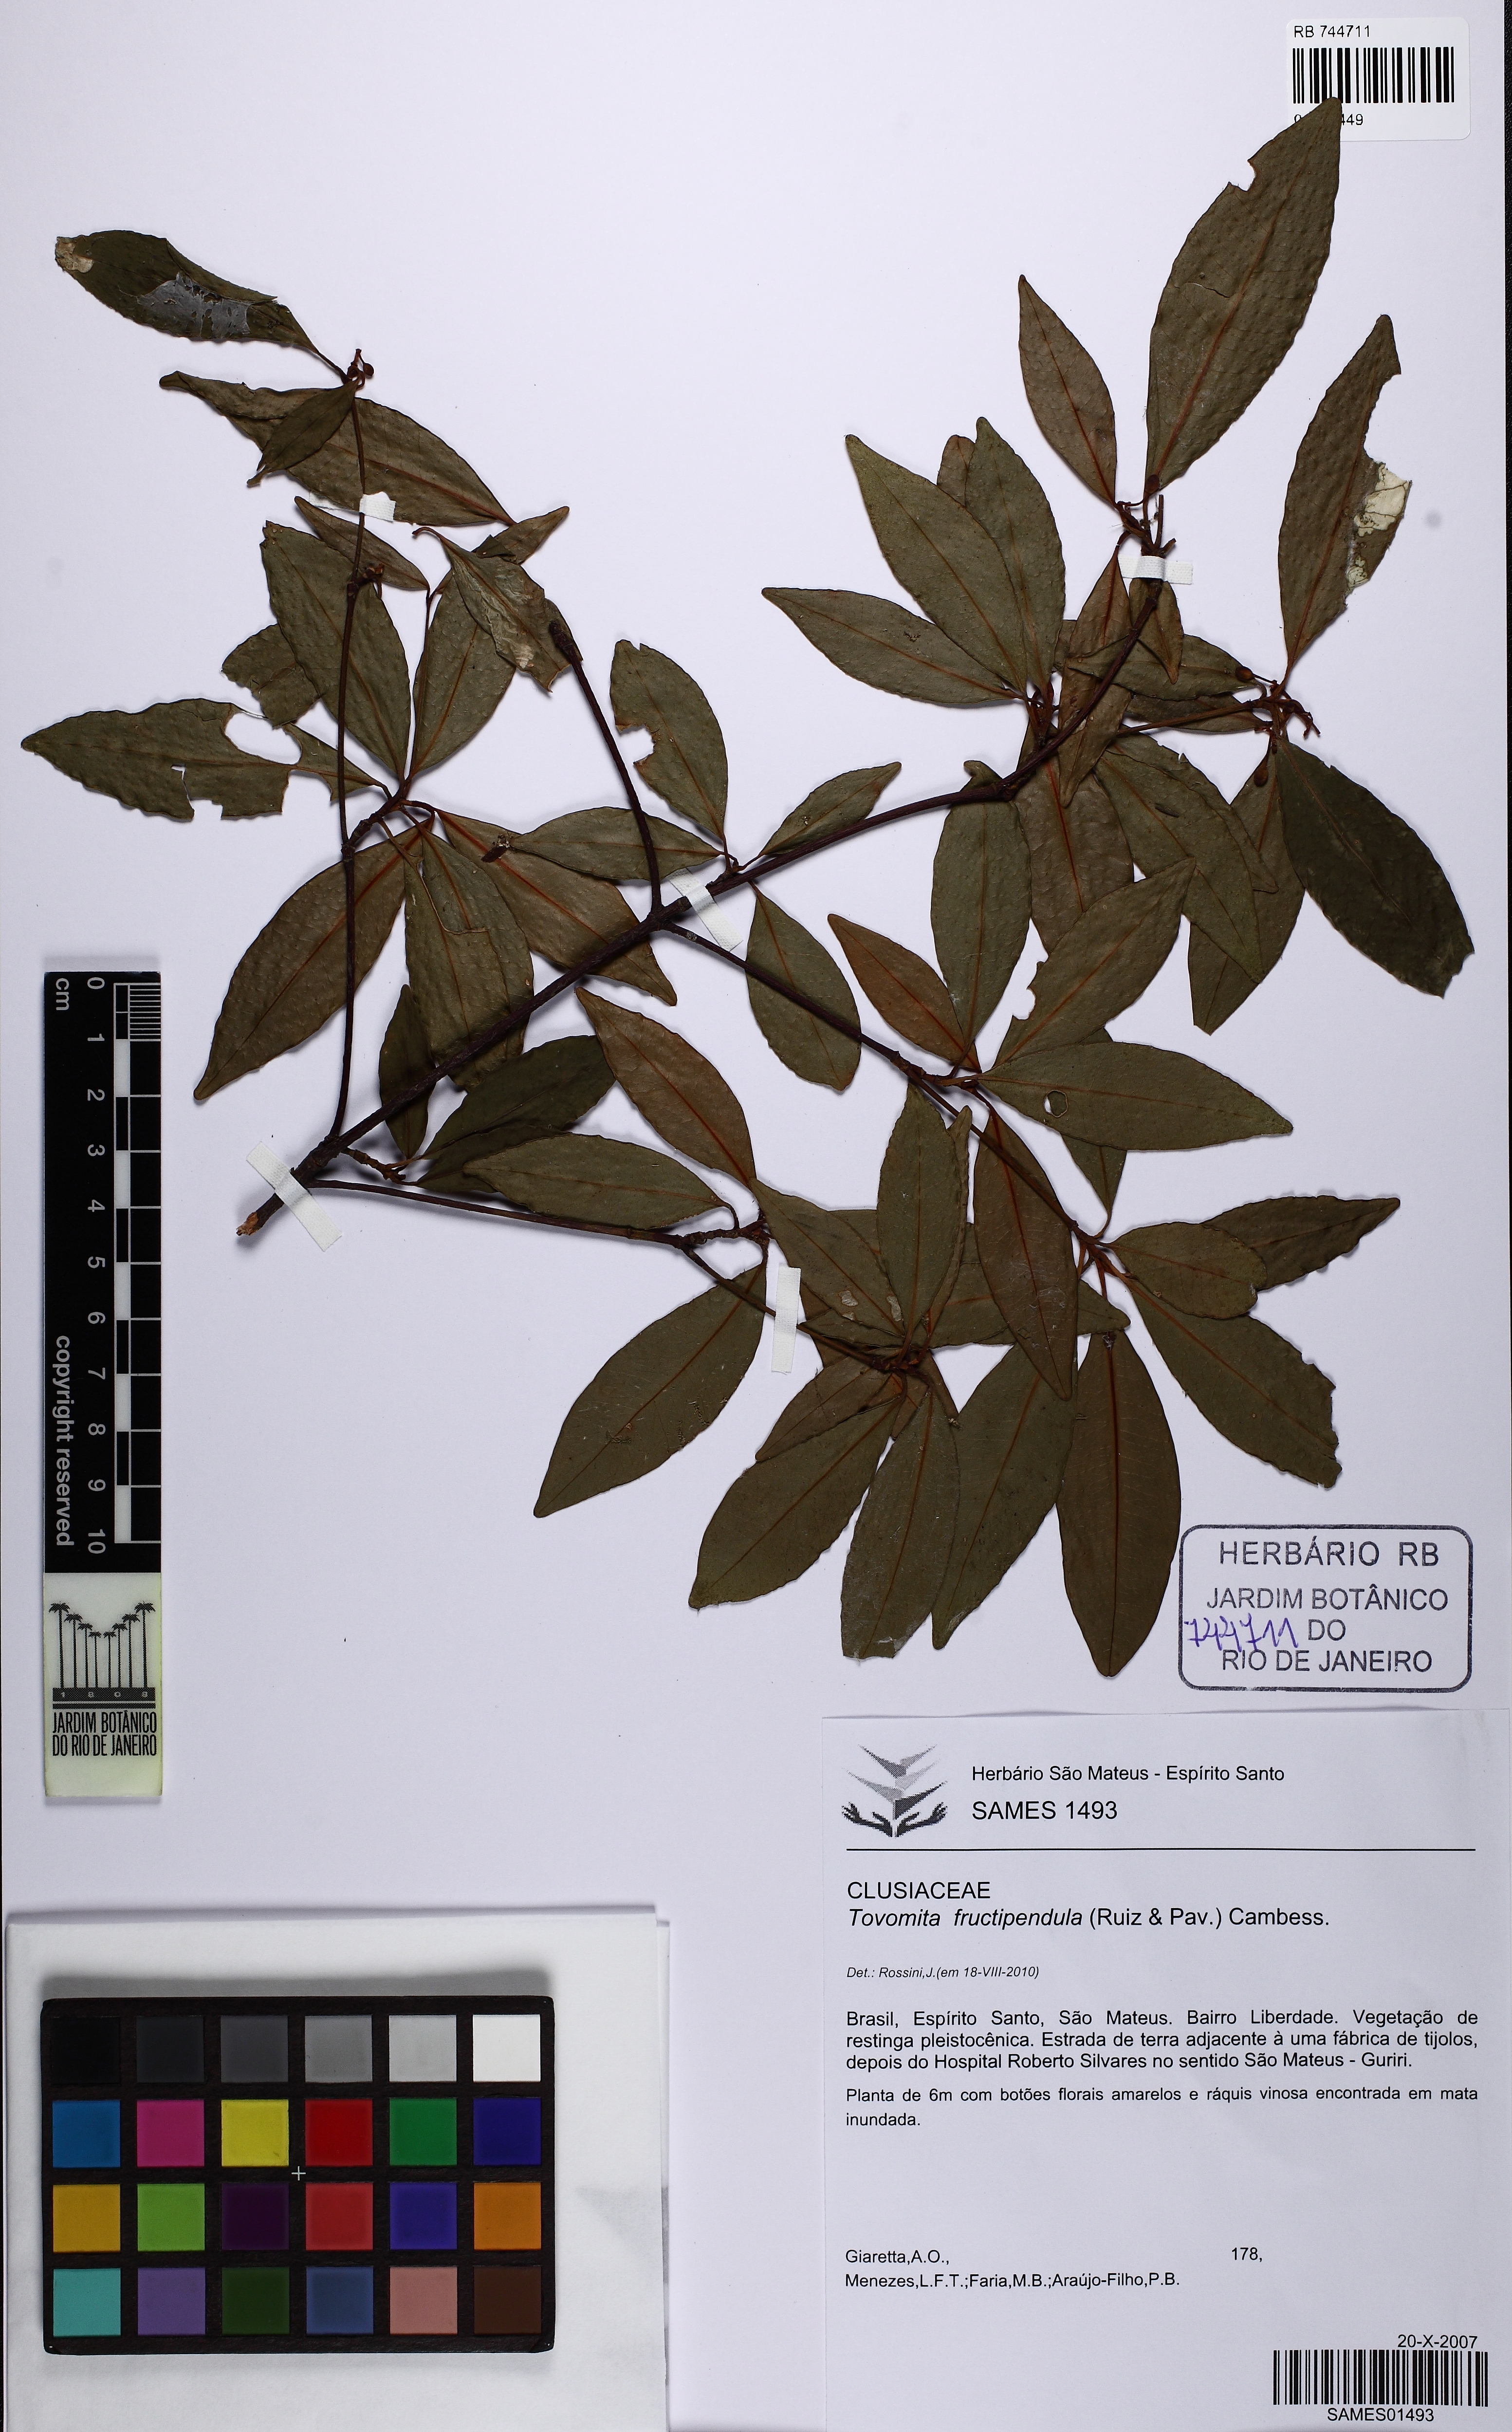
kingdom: Plantae
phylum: Tracheophyta
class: Magnoliopsida
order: Malpighiales
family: Clusiaceae
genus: Tovomita
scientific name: Tovomita fructipendula
